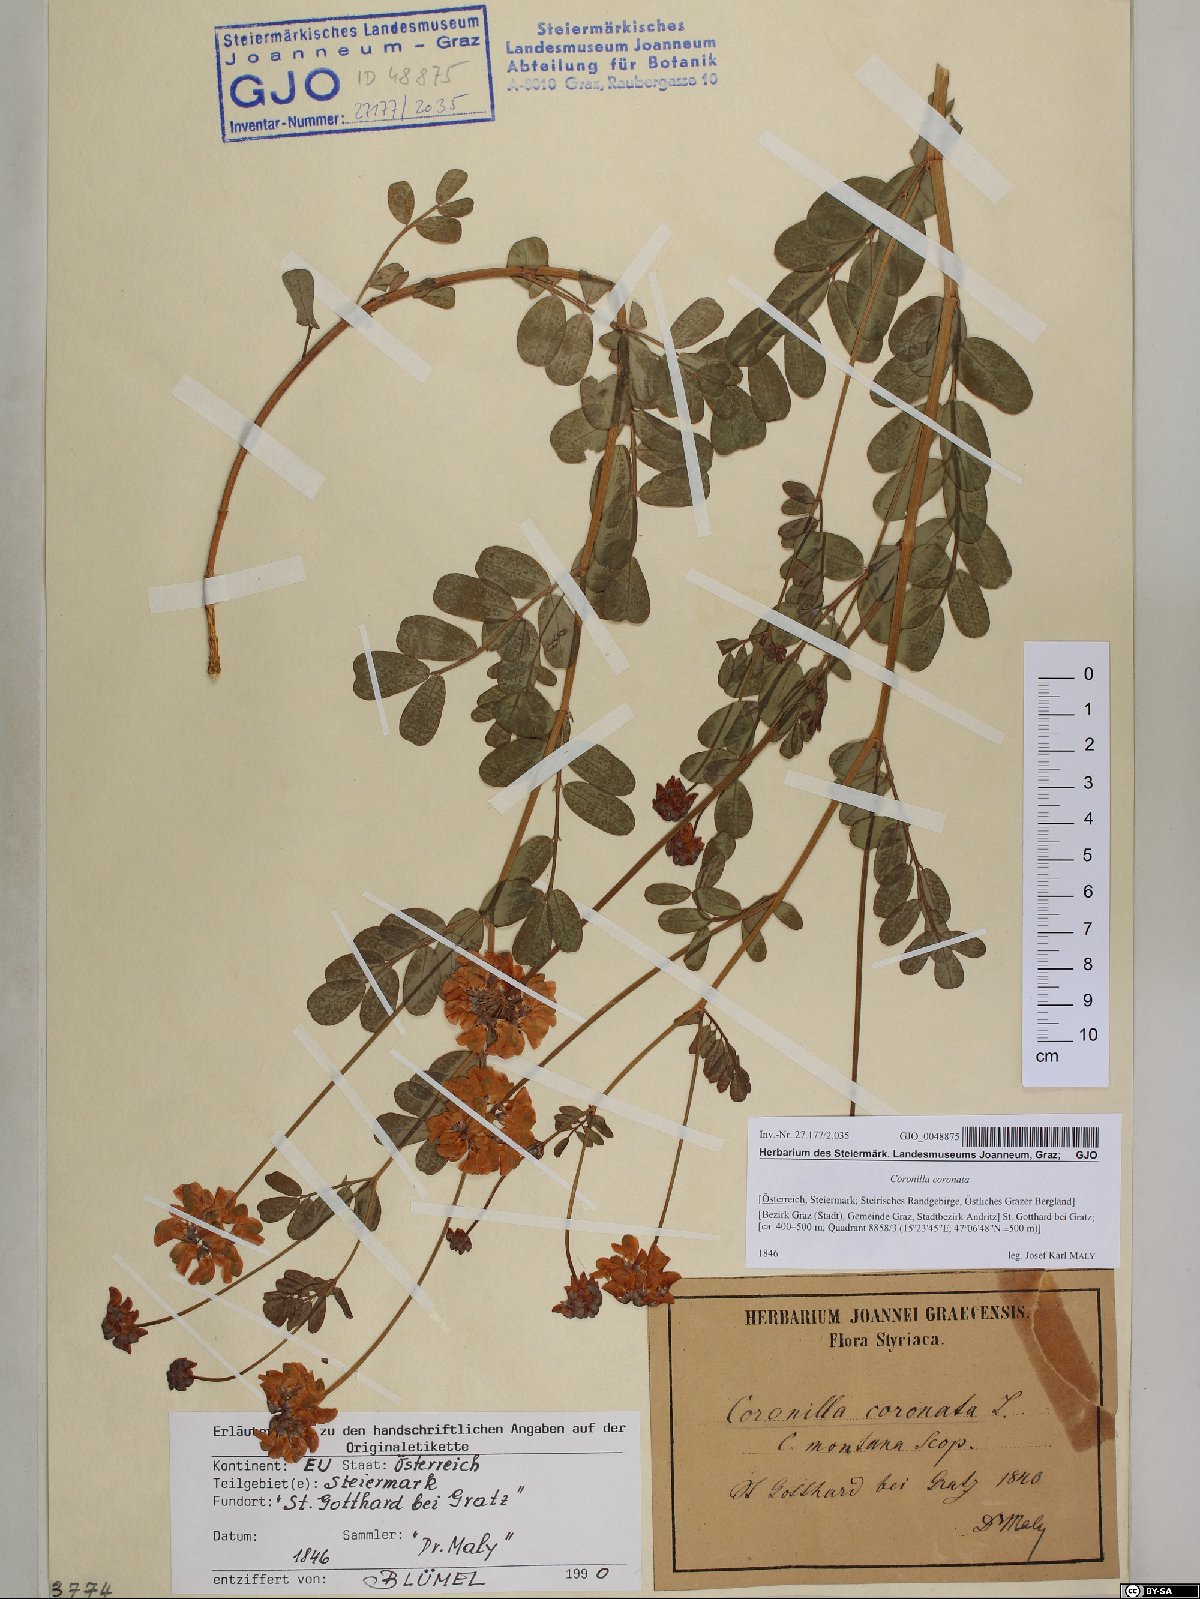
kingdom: Plantae
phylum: Tracheophyta
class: Magnoliopsida
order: Fabales
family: Fabaceae
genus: Coronilla
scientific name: Coronilla coronata
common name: Scorpion-vetch
